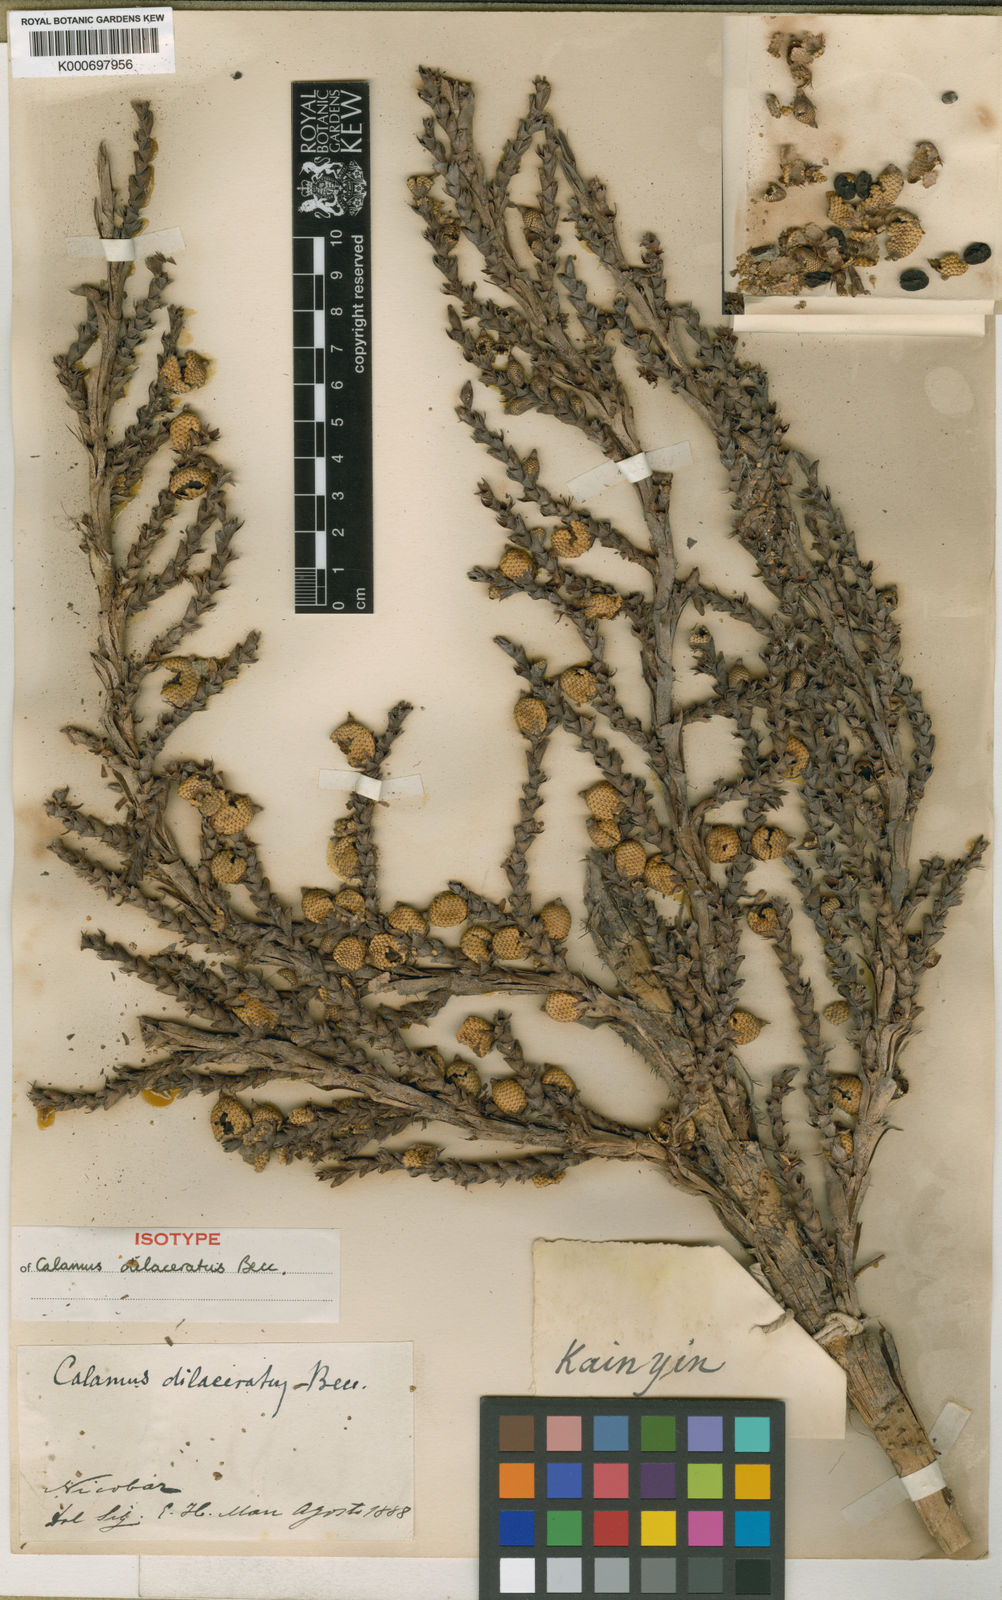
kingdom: Plantae
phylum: Tracheophyta
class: Liliopsida
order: Arecales
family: Arecaceae
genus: Calamus
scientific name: Calamus dilaceratus
